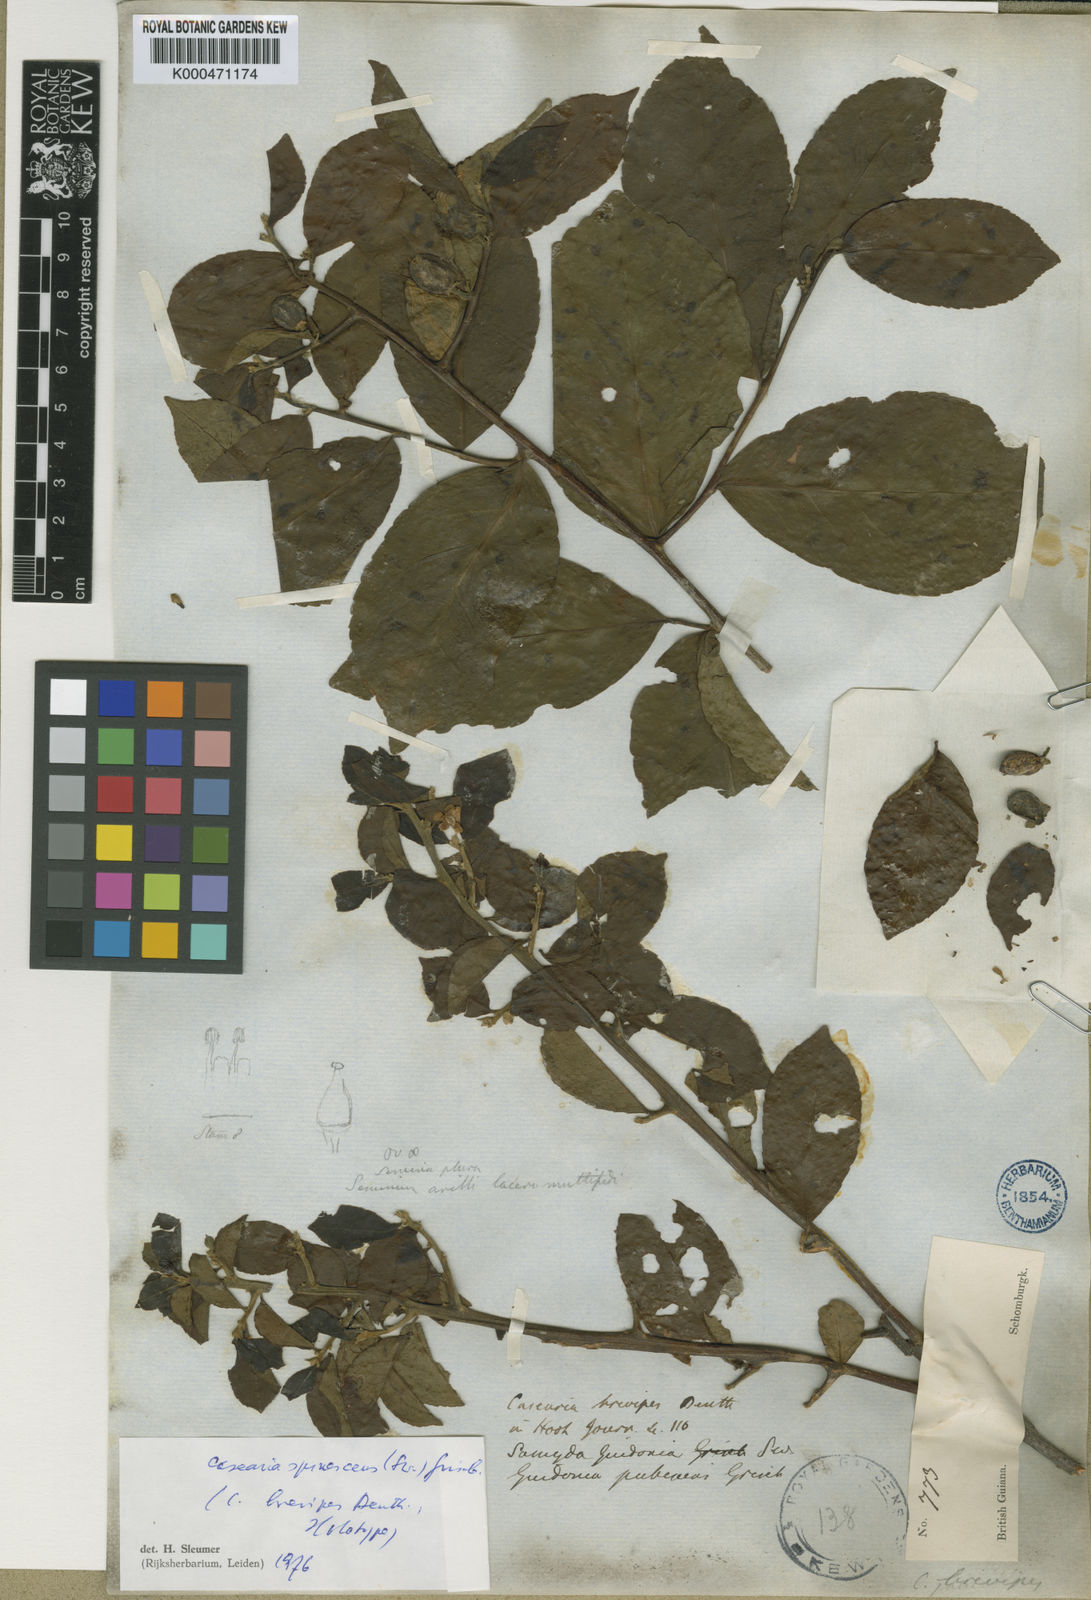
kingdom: Plantae
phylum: Tracheophyta
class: Magnoliopsida
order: Malpighiales
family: Salicaceae
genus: Casearia
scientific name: Casearia spinescens
